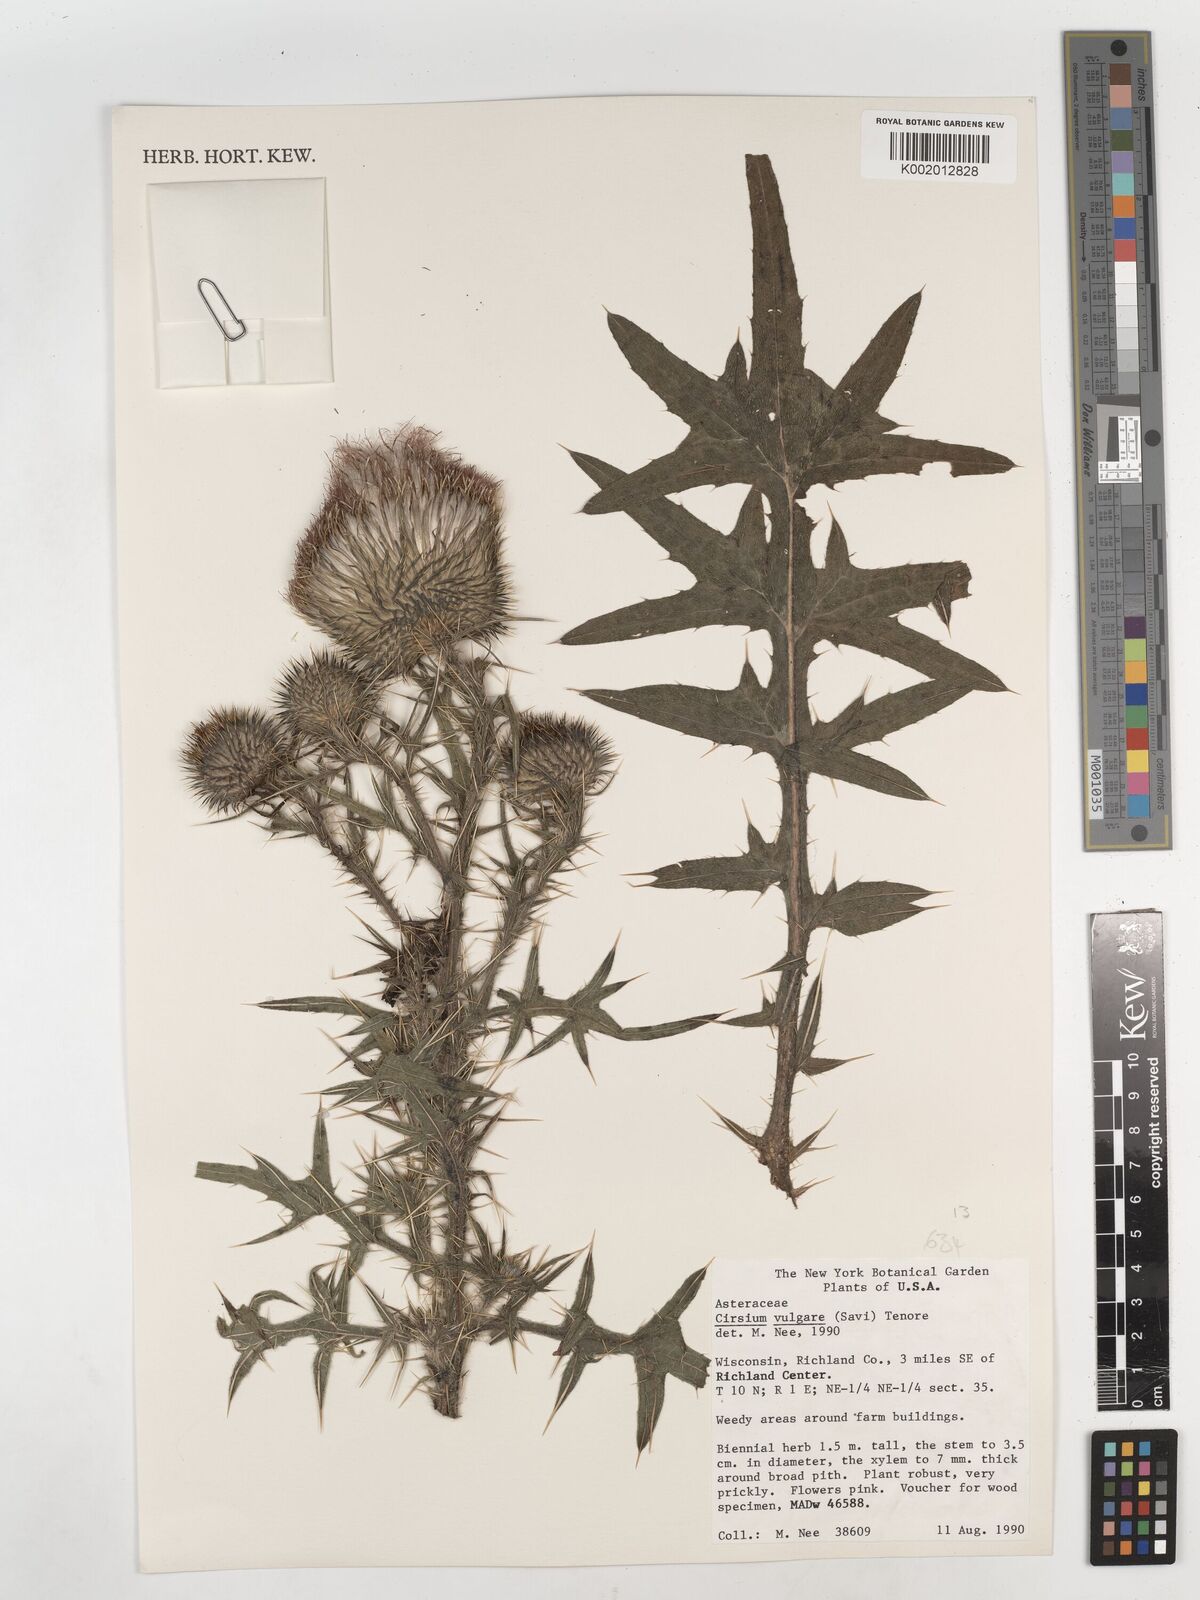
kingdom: Plantae
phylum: Tracheophyta
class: Magnoliopsida
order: Asterales
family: Asteraceae
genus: Cirsium
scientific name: Cirsium vulgare
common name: Bull thistle
